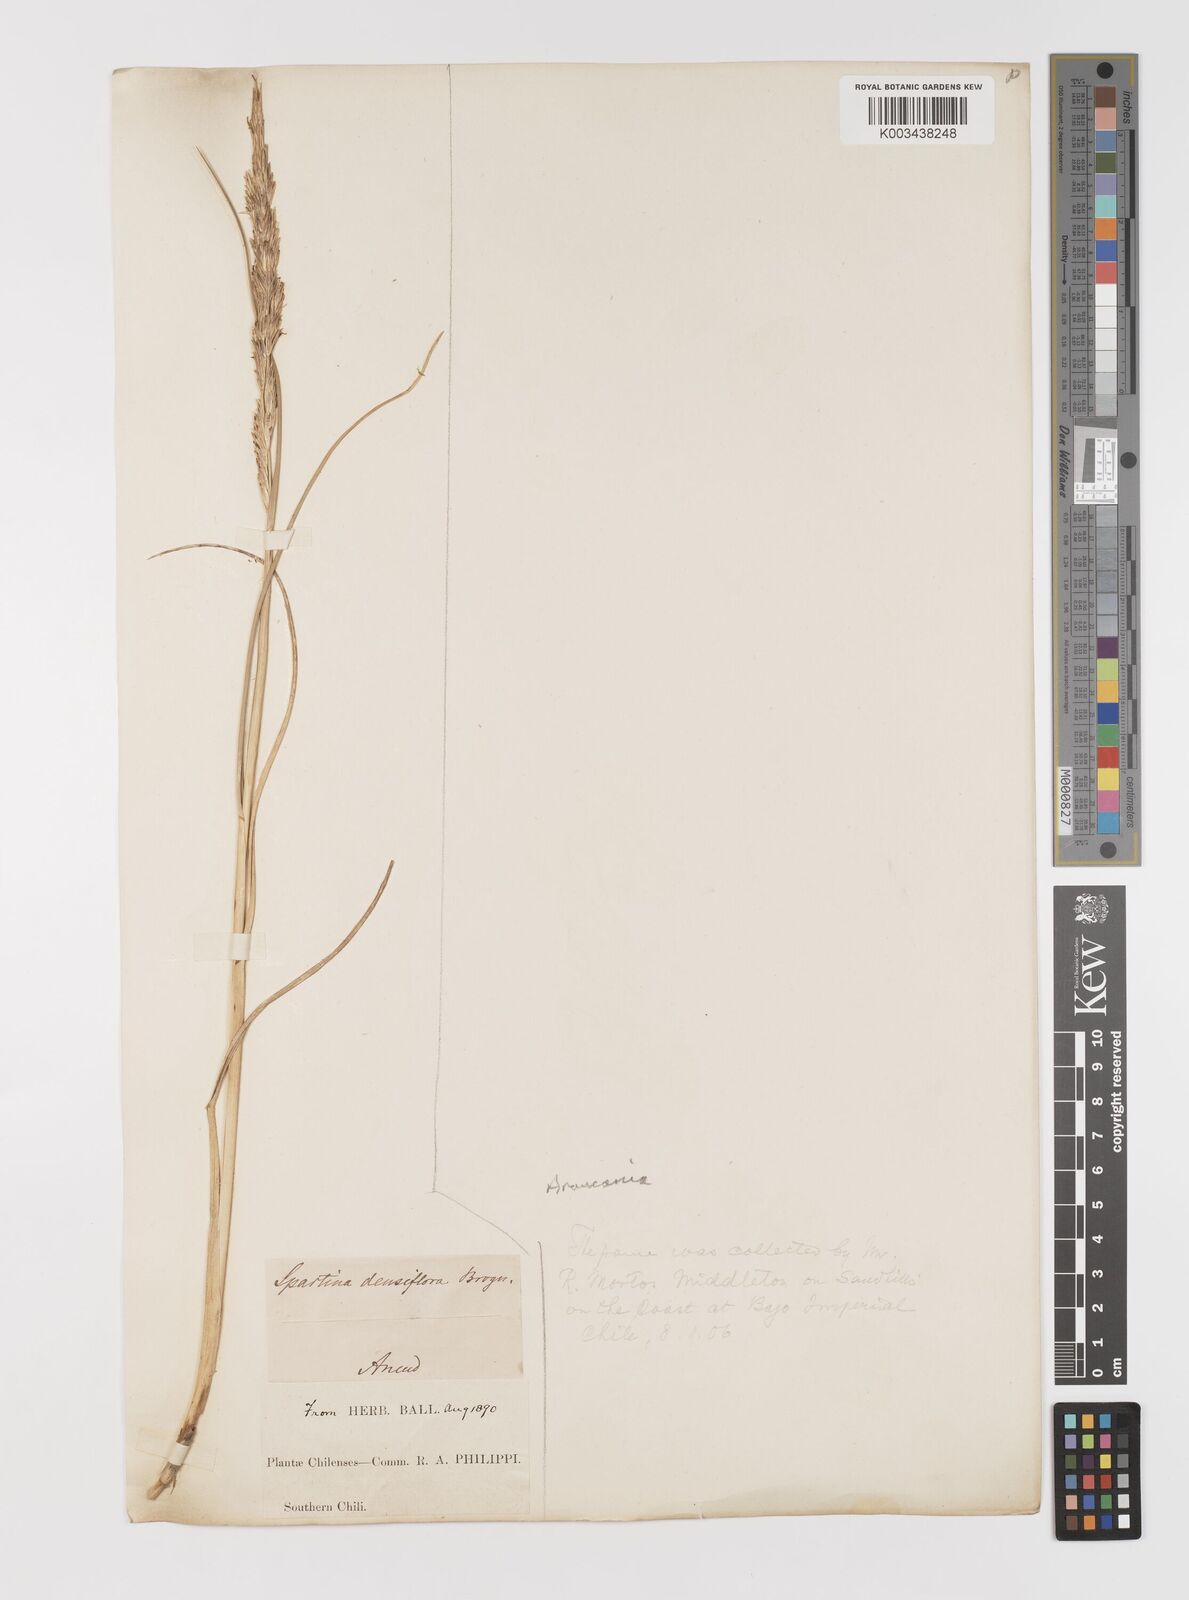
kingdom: Plantae
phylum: Tracheophyta
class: Liliopsida
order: Poales
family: Poaceae
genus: Sporobolus
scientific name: Sporobolus montevidensis
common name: Montevideo dropseed
